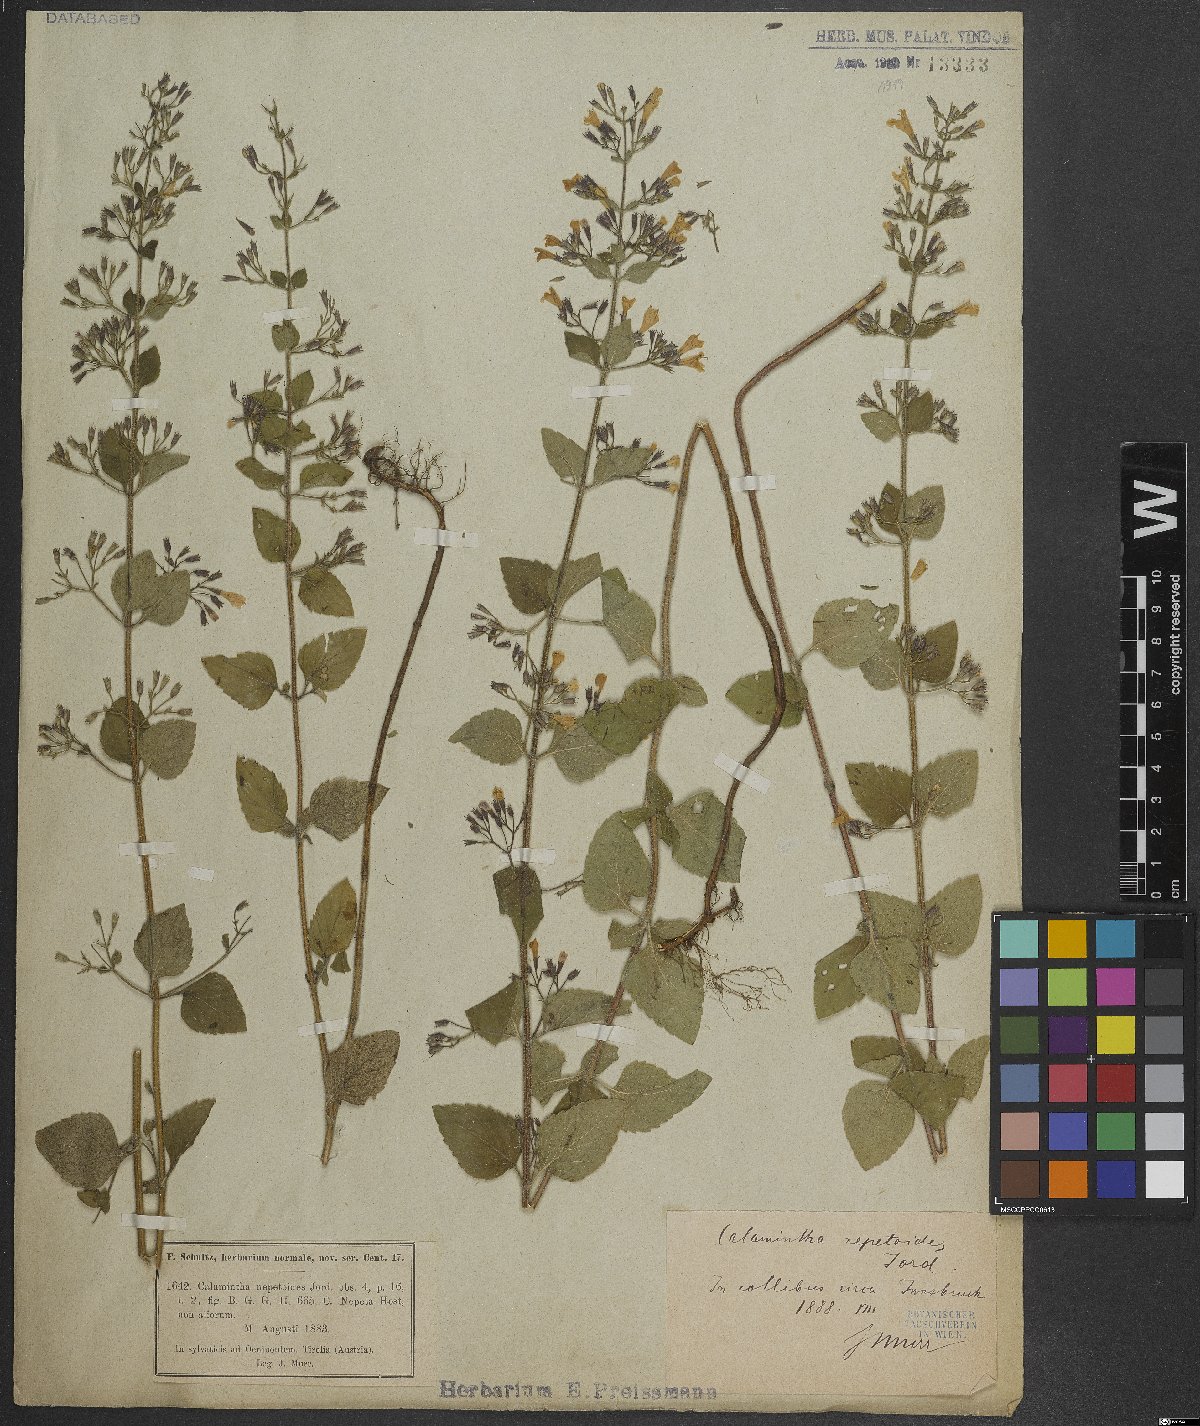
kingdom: Plantae
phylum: Tracheophyta
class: Magnoliopsida
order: Lamiales
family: Lamiaceae
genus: Clinopodium
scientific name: Clinopodium nepeta
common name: Lesser calamint
